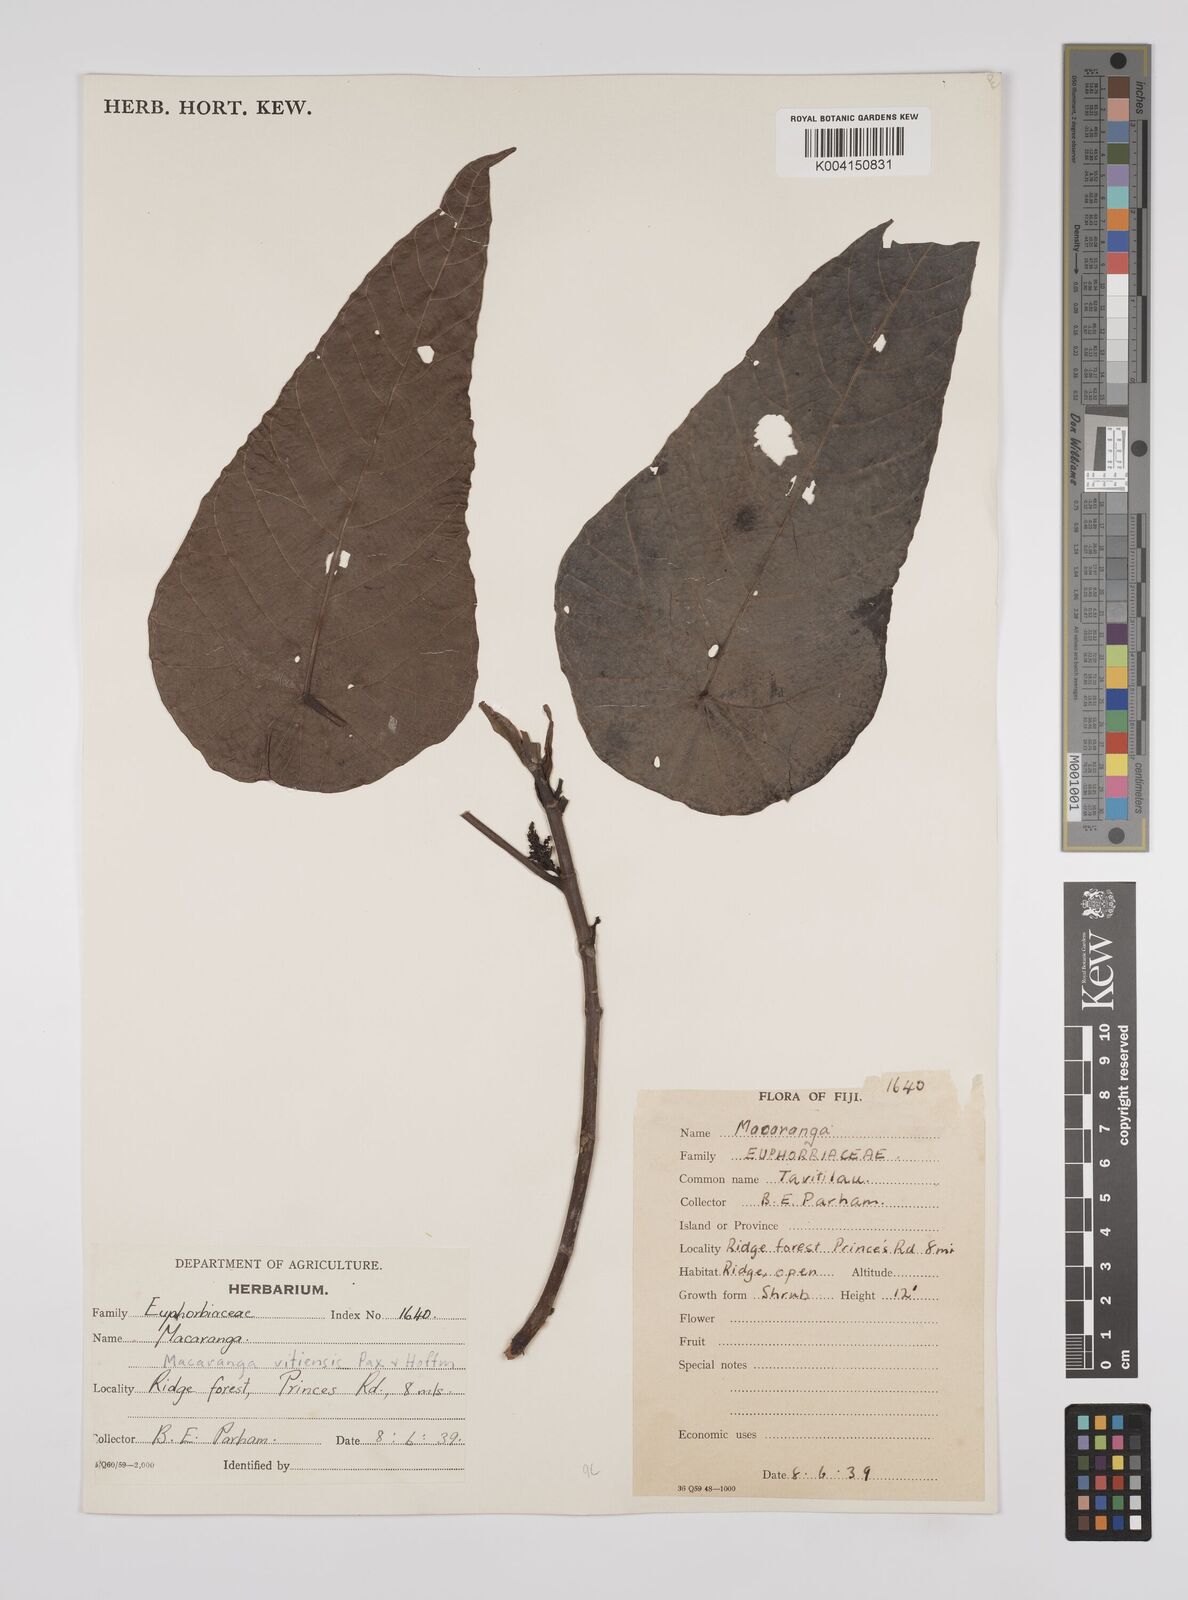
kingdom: Plantae
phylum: Tracheophyta
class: Magnoliopsida
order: Malpighiales
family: Euphorbiaceae
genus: Macaranga
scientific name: Macaranga
